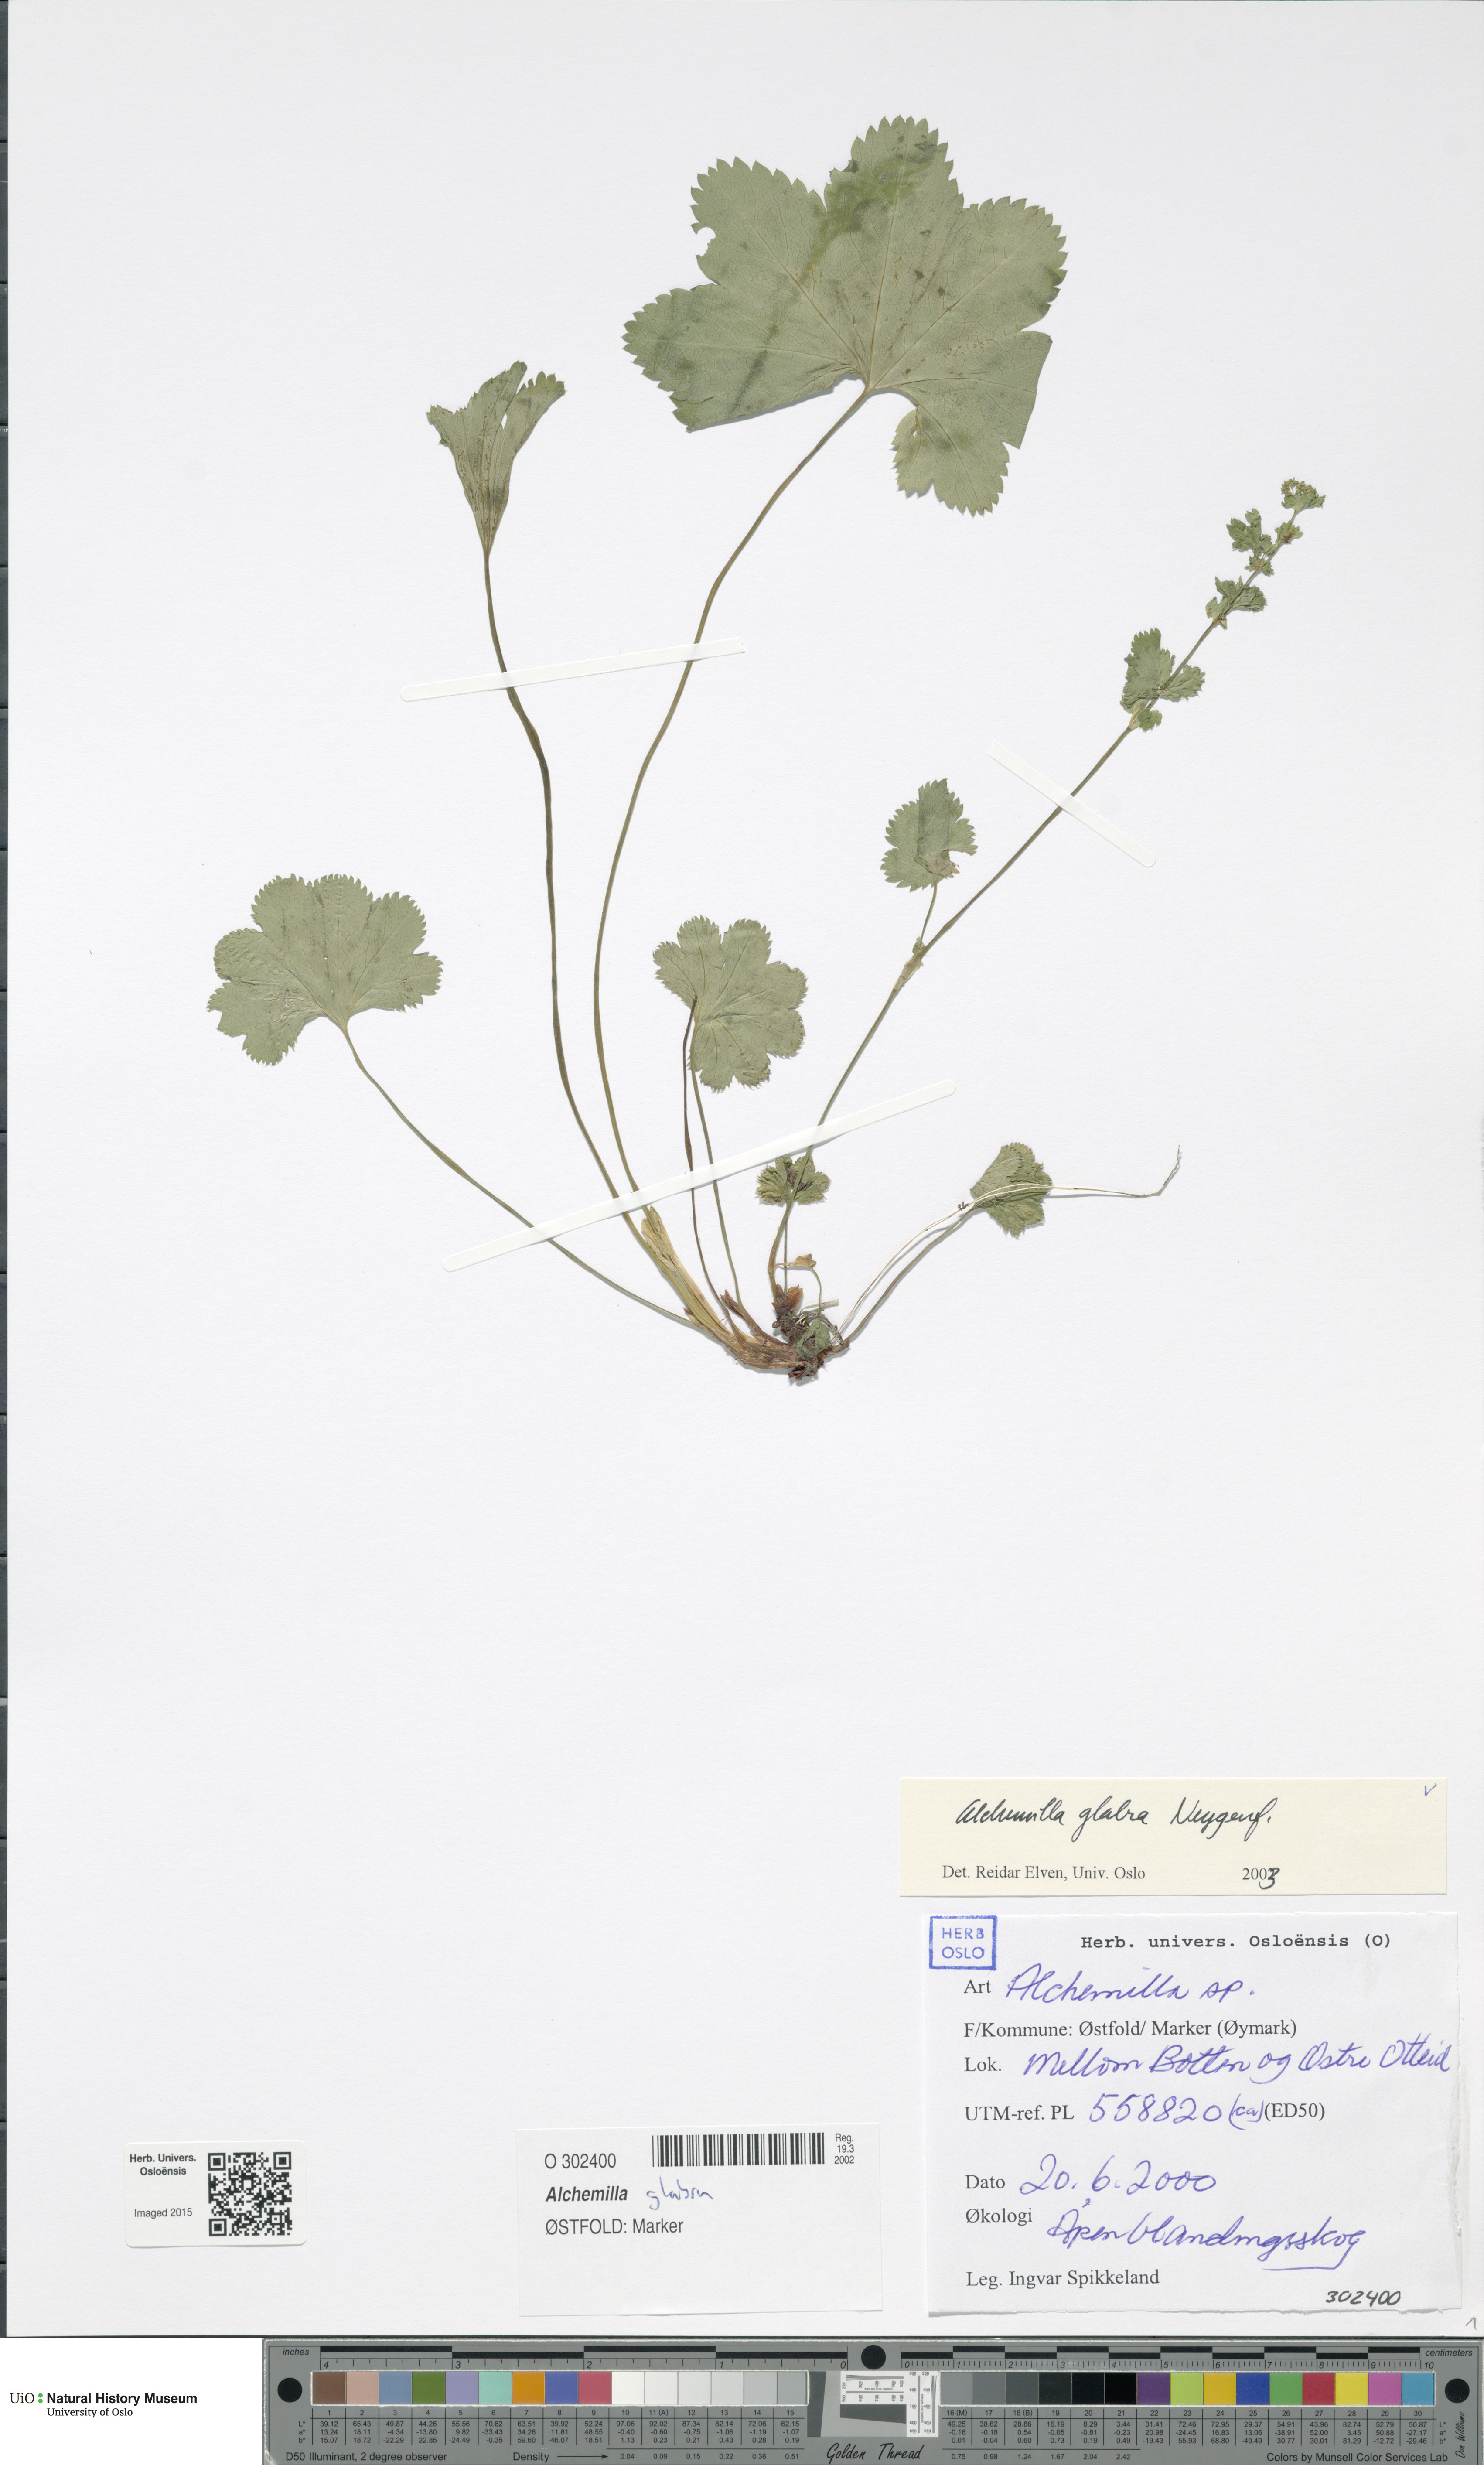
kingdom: Plantae
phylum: Tracheophyta
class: Magnoliopsida
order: Rosales
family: Rosaceae
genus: Alchemilla
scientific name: Alchemilla glabra
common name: Smooth lady's-mantle
